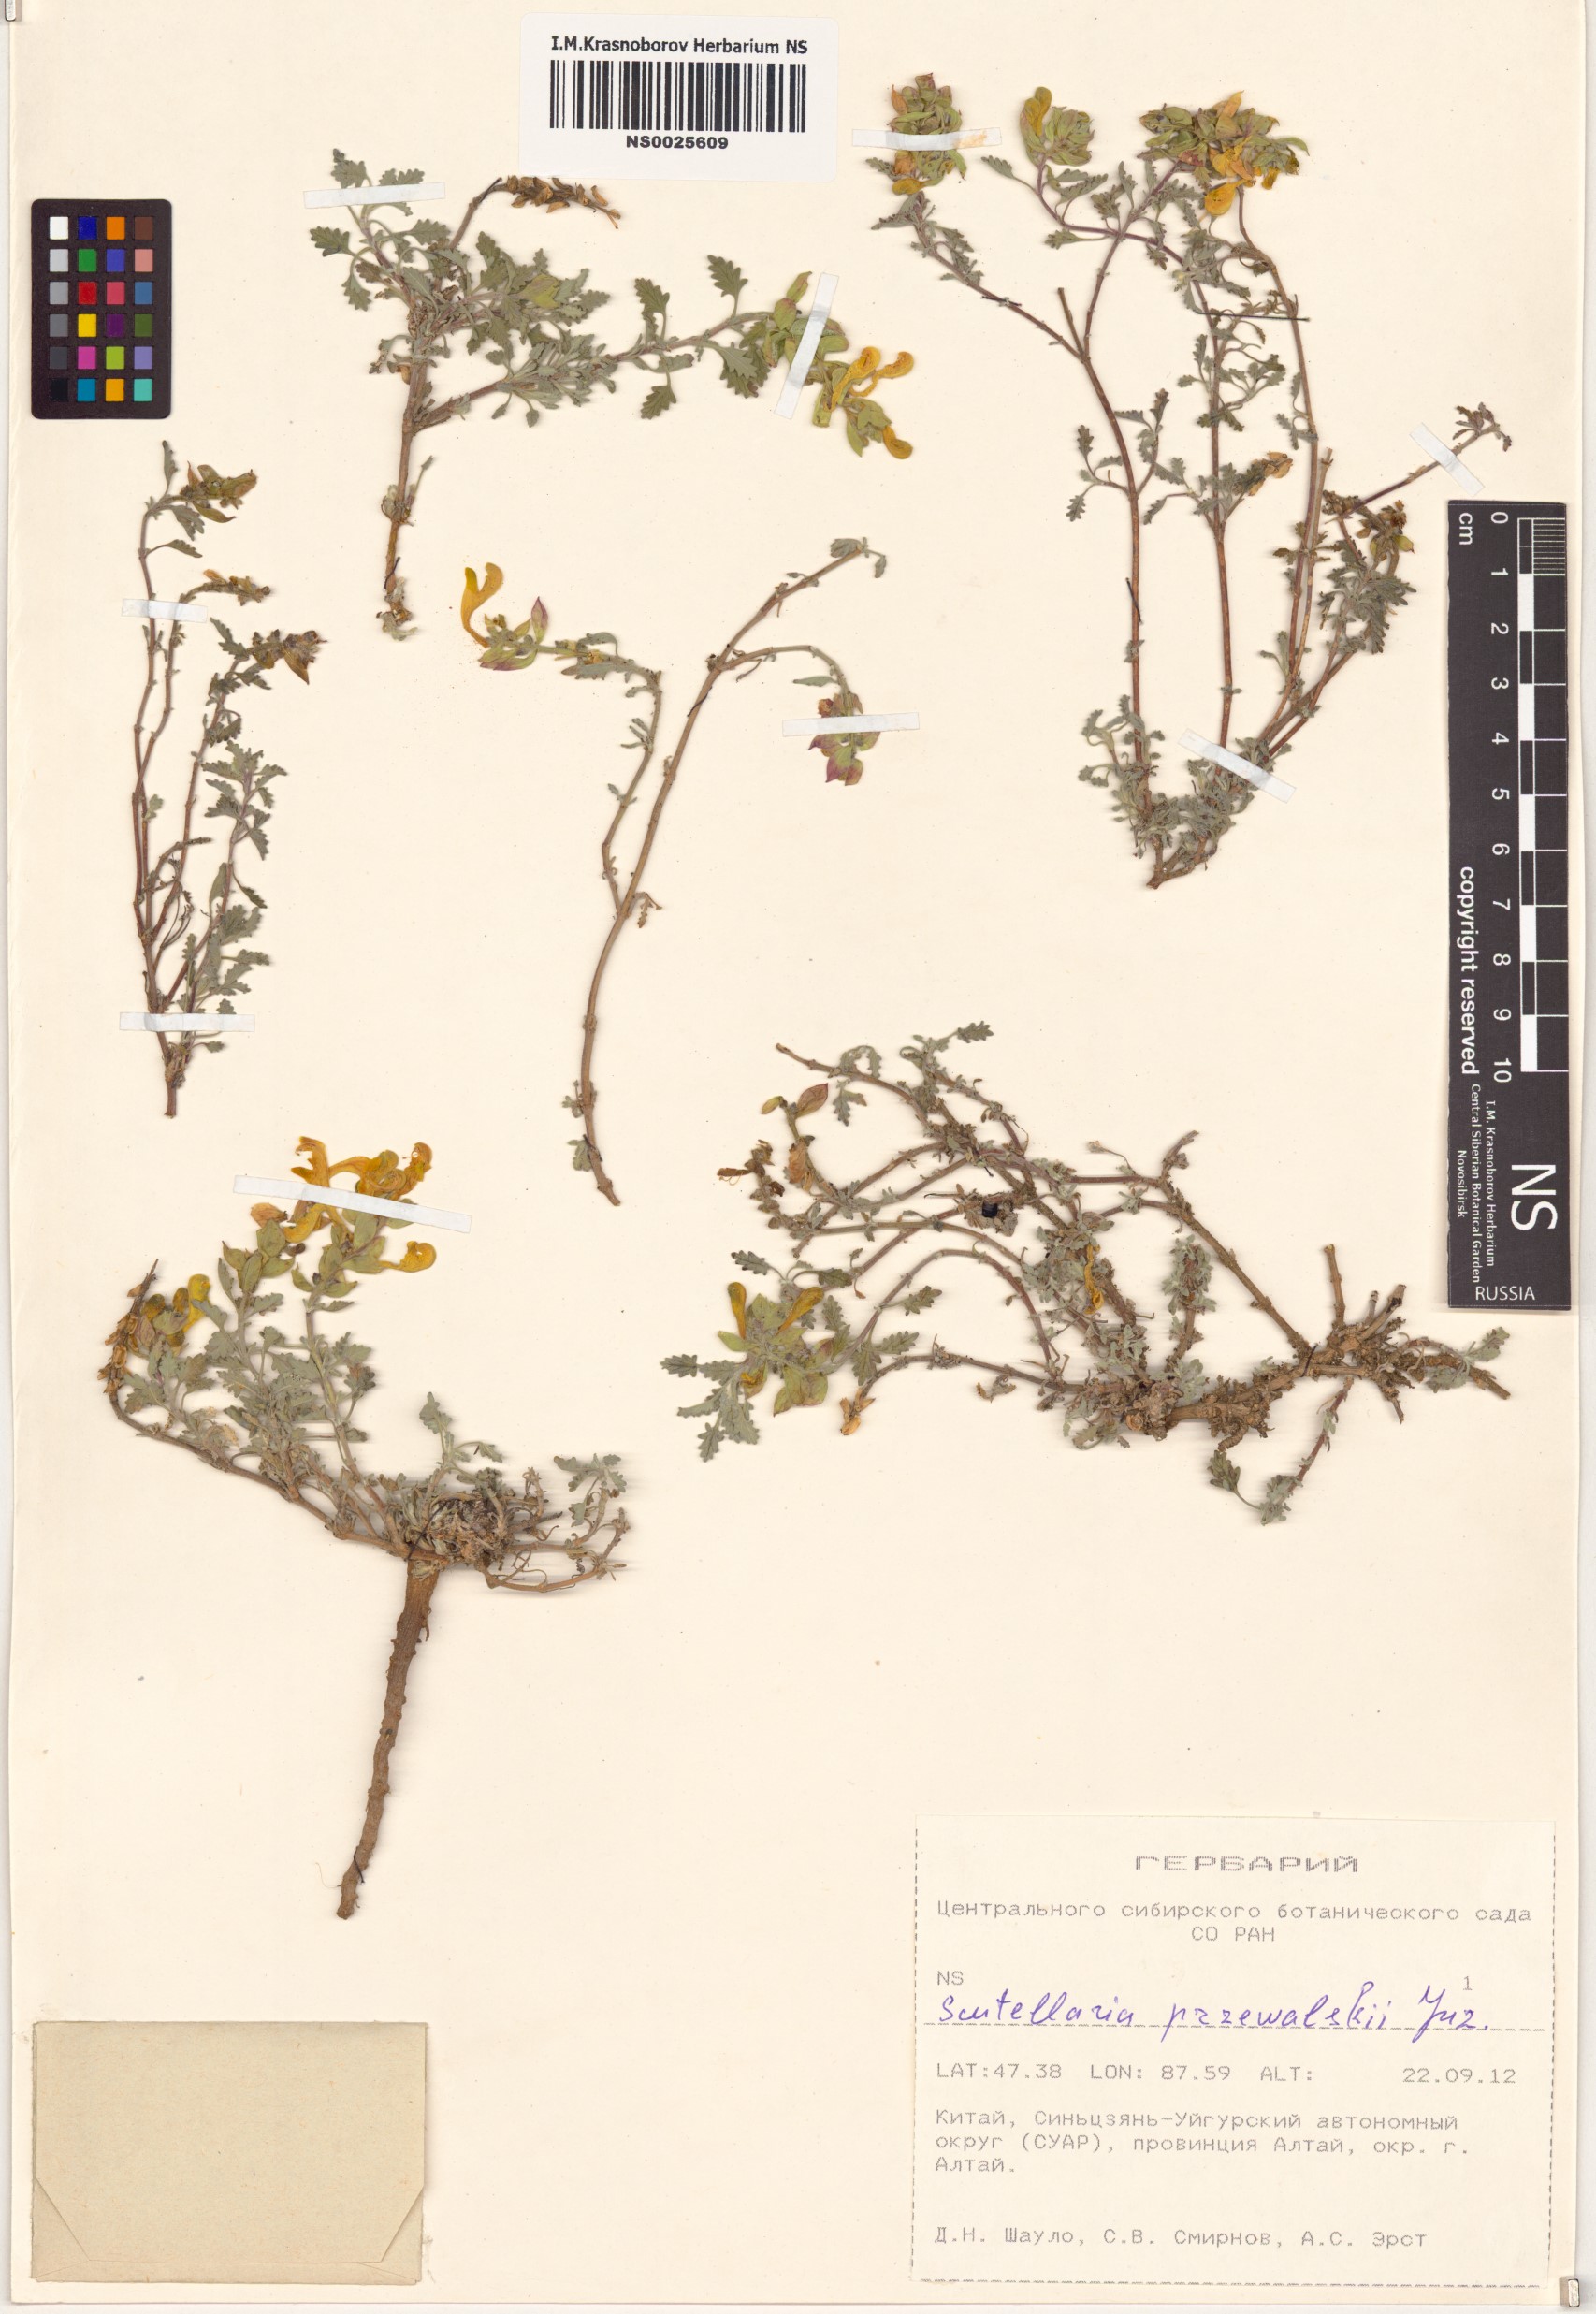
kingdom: Plantae
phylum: Tracheophyta
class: Magnoliopsida
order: Lamiales
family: Lamiaceae
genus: Scutellaria
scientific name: Scutellaria przewalskii
